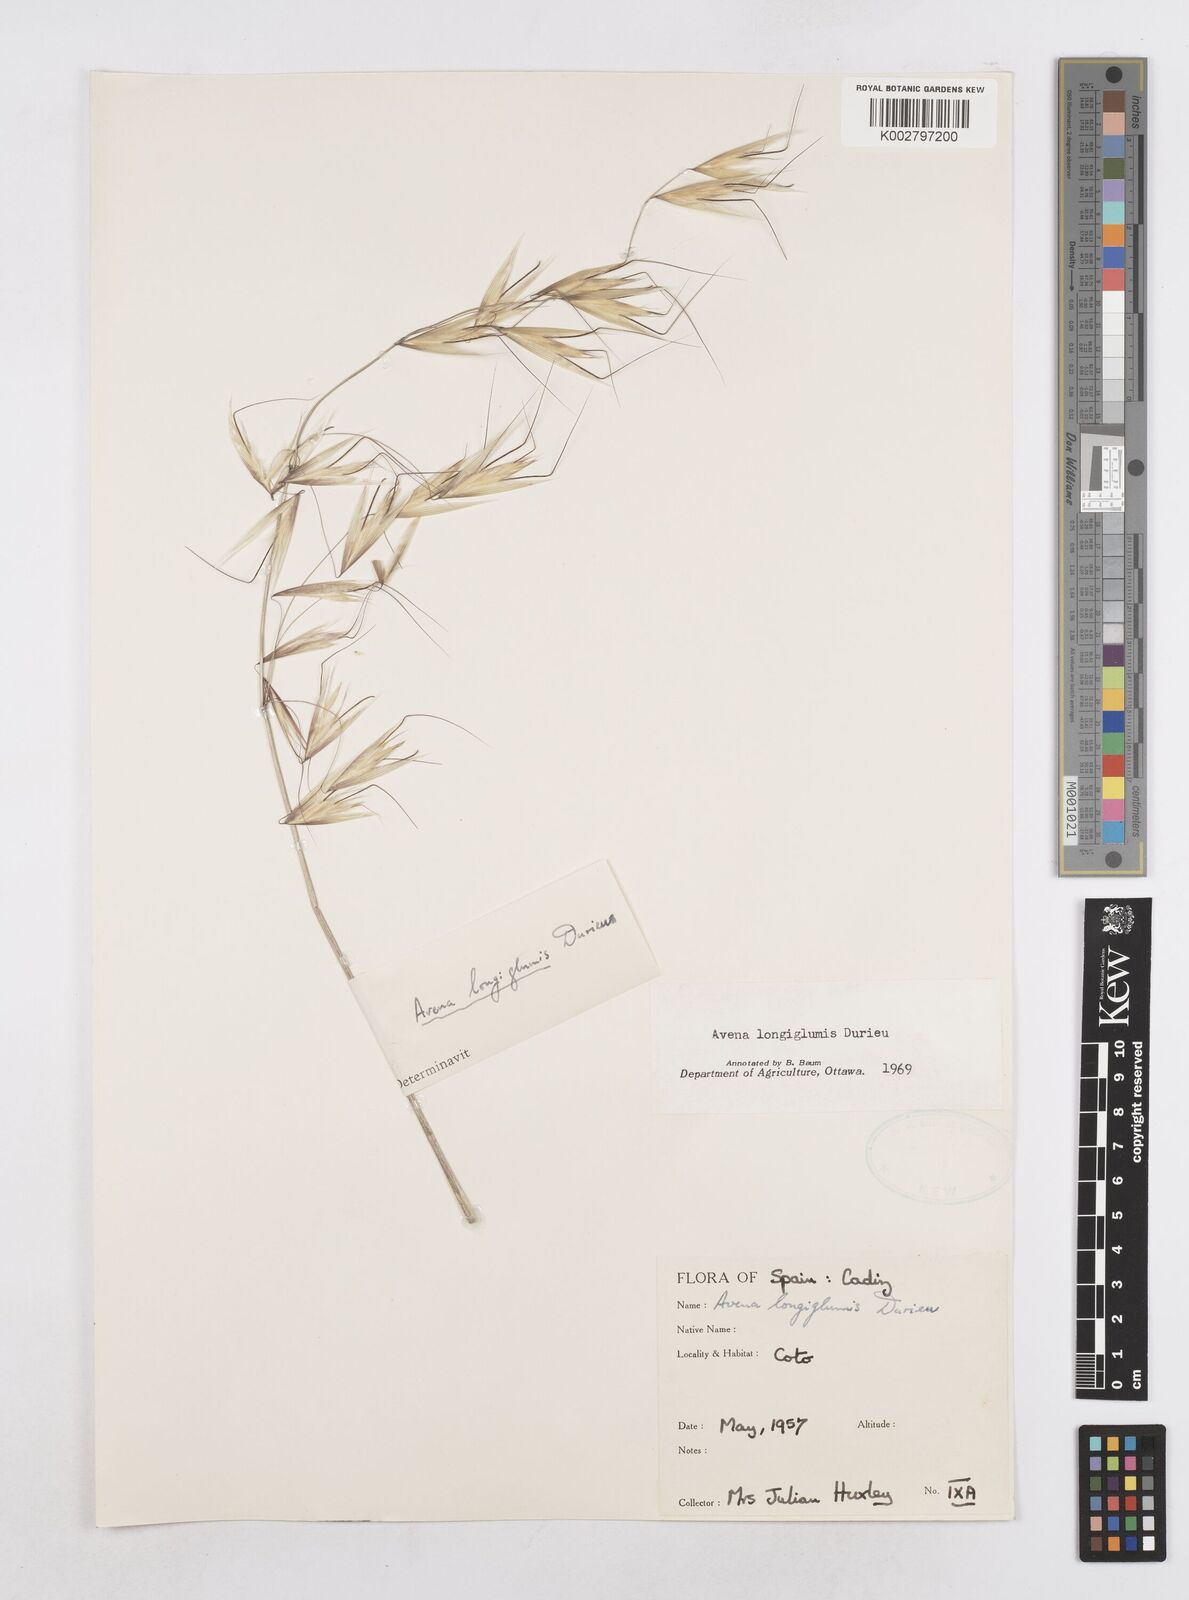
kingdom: Plantae
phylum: Tracheophyta
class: Liliopsida
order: Poales
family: Poaceae
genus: Avena
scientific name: Avena longiglumis
